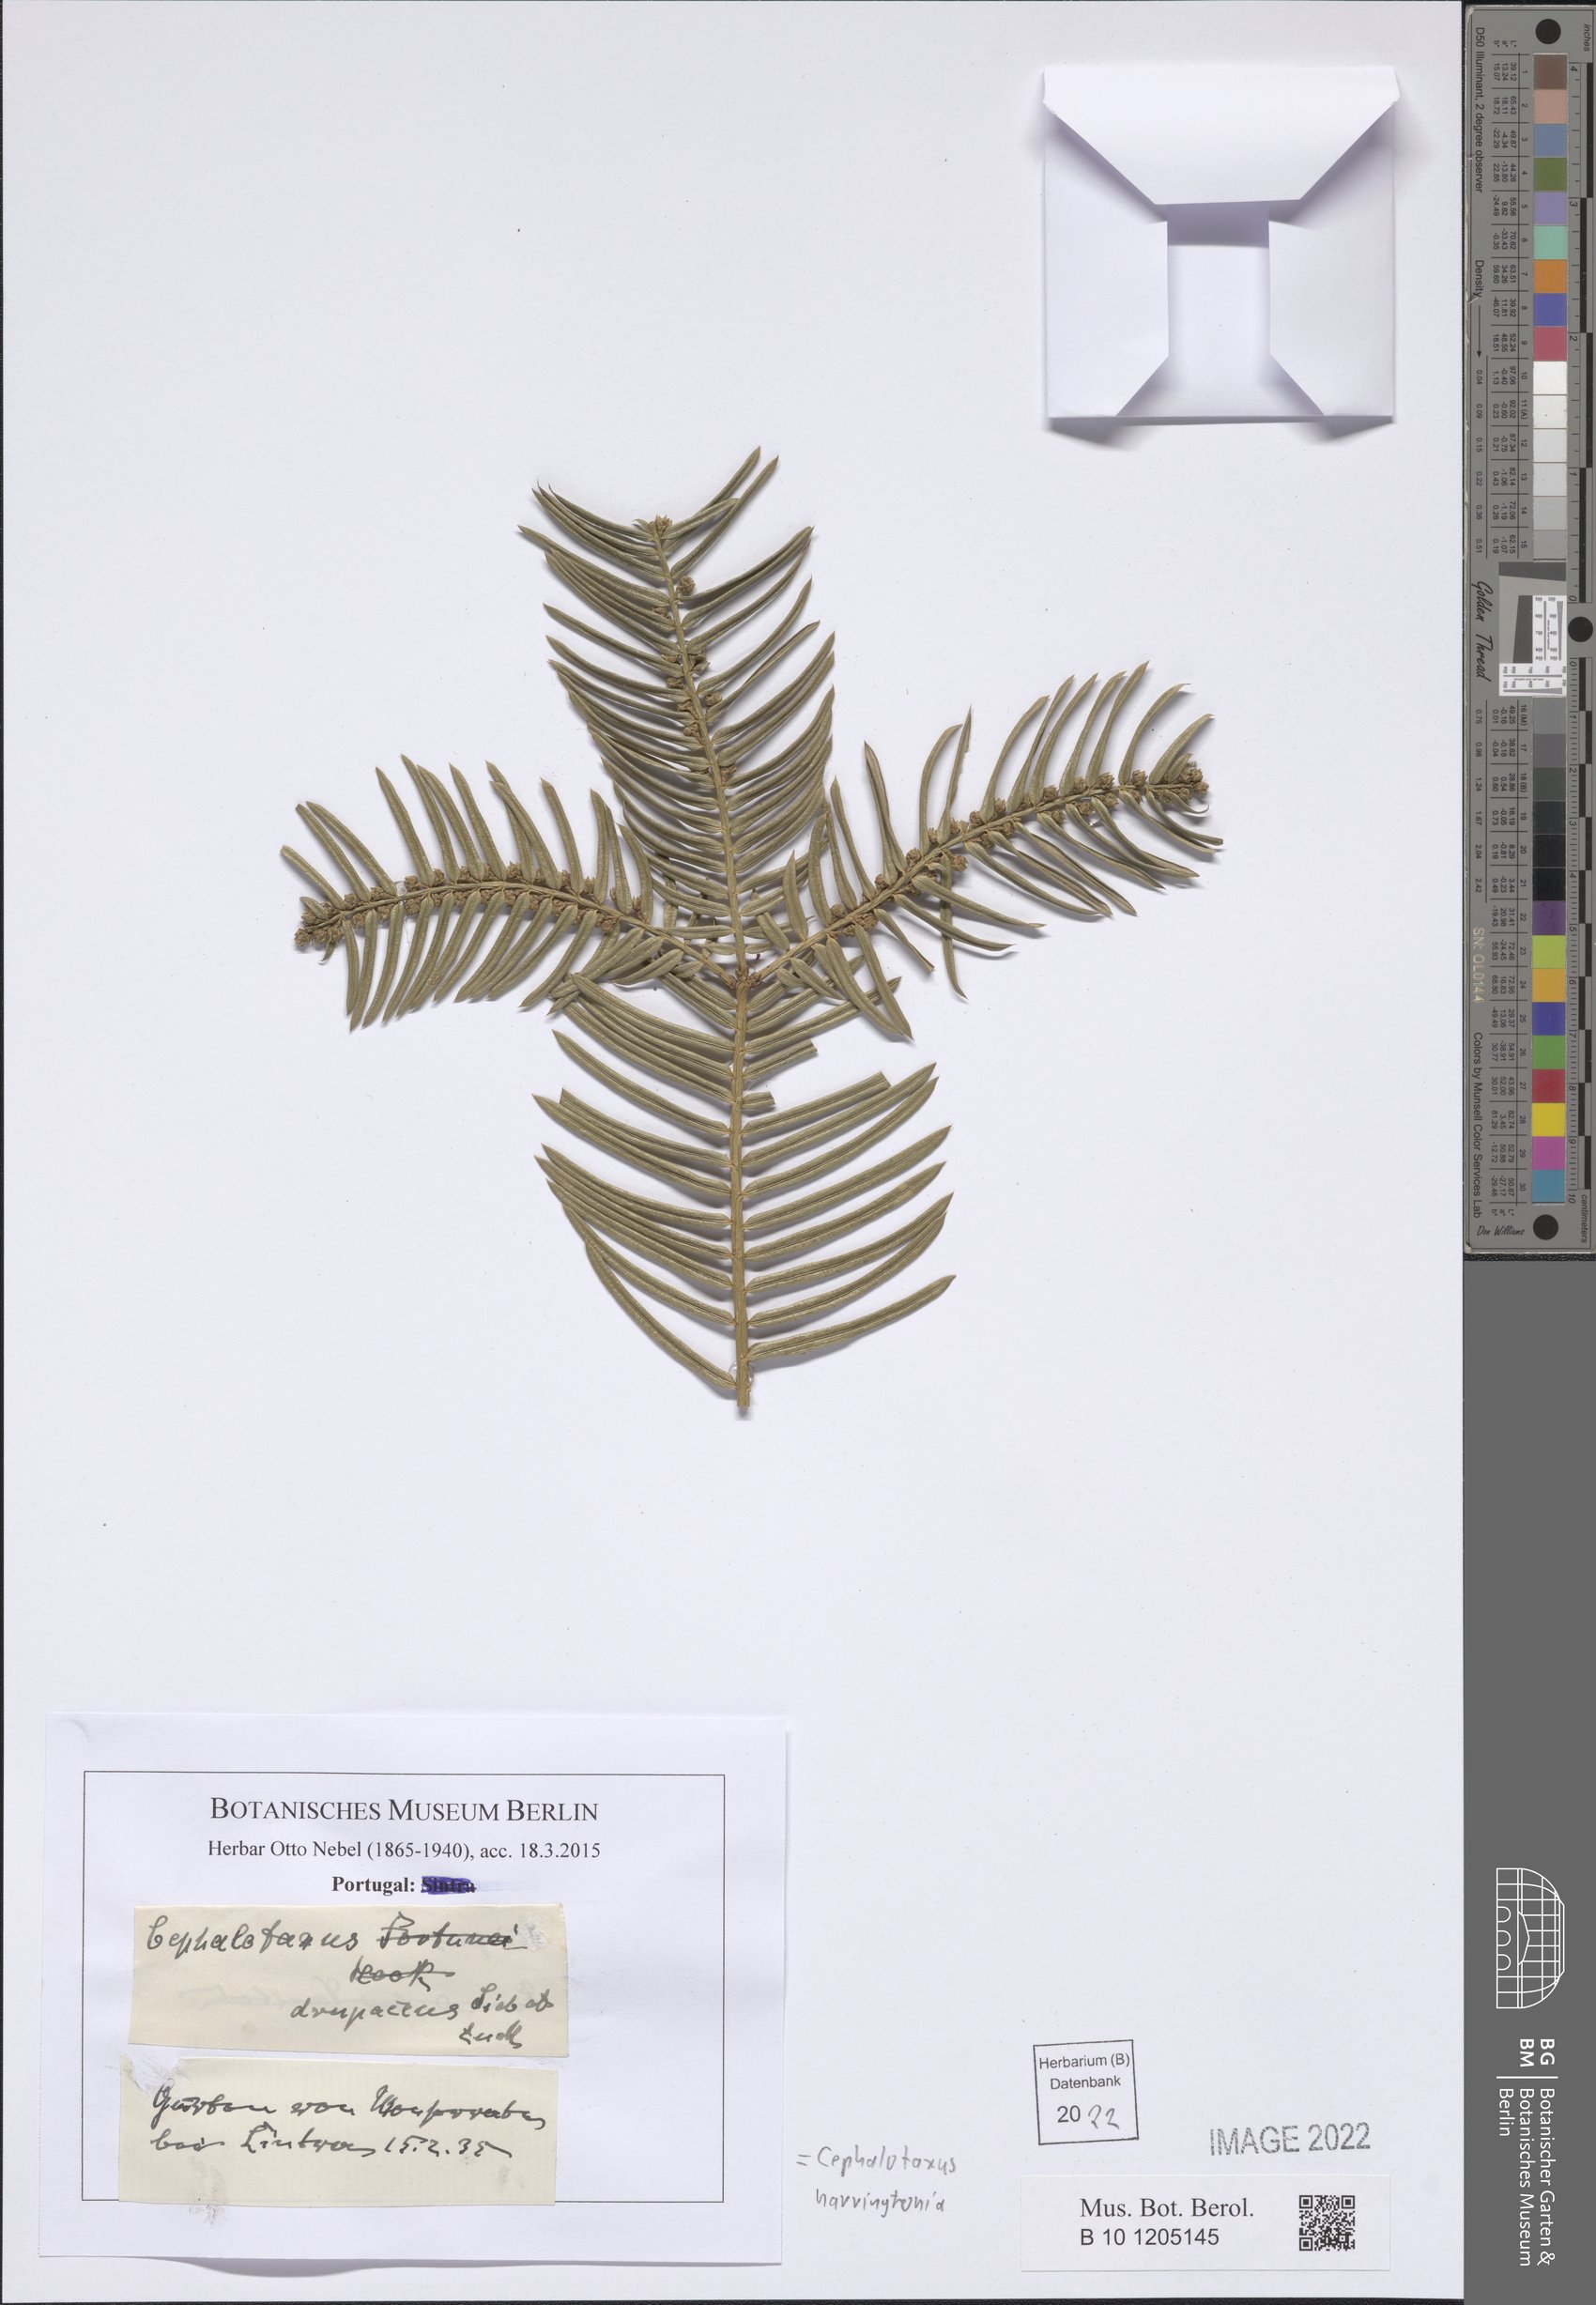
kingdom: Plantae
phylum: Tracheophyta
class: Pinopsida
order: Pinales
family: Cephalotaxaceae
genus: Cephalotaxus
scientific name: Cephalotaxus harringtonia
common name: Japanese plum-yew
